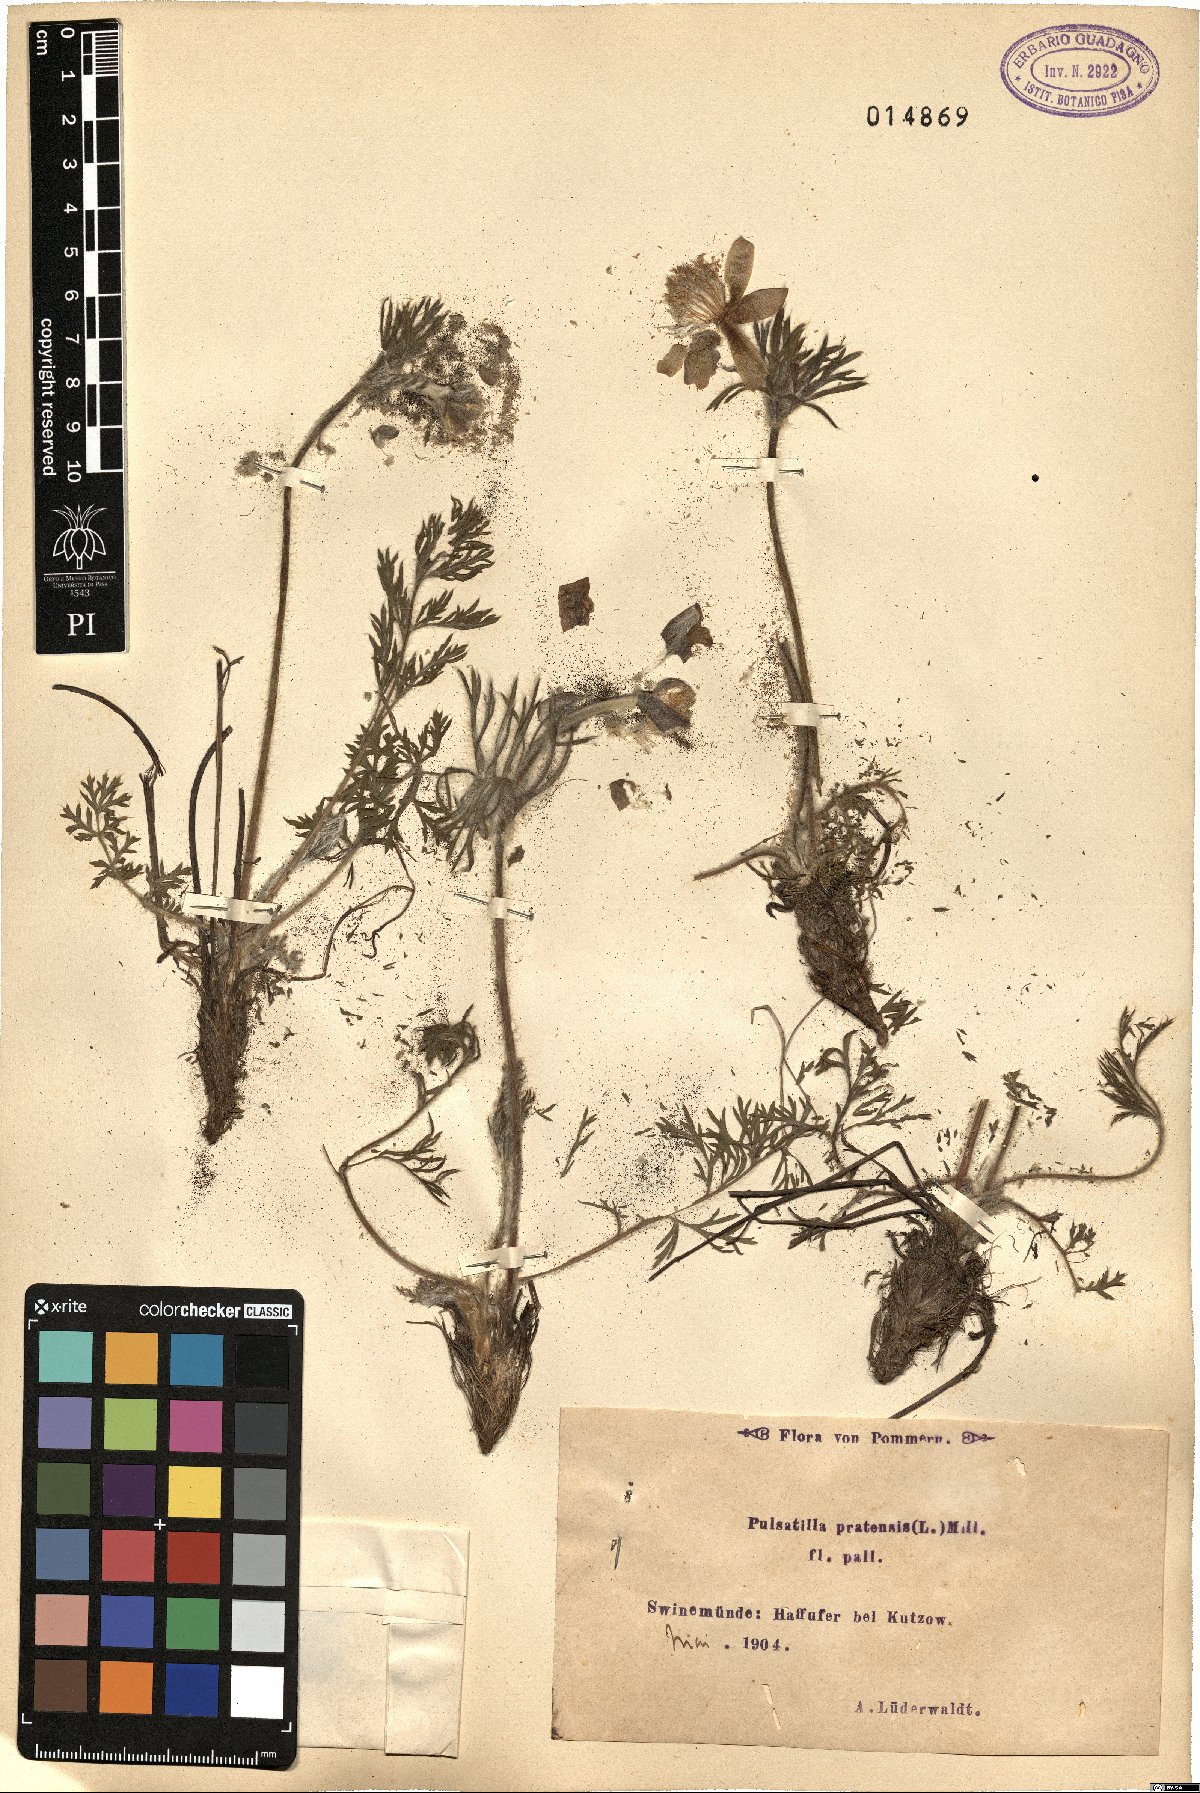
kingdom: Plantae
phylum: Tracheophyta
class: Magnoliopsida
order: Ranunculales
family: Ranunculaceae
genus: Pulsatilla
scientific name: Pulsatilla pratensis
